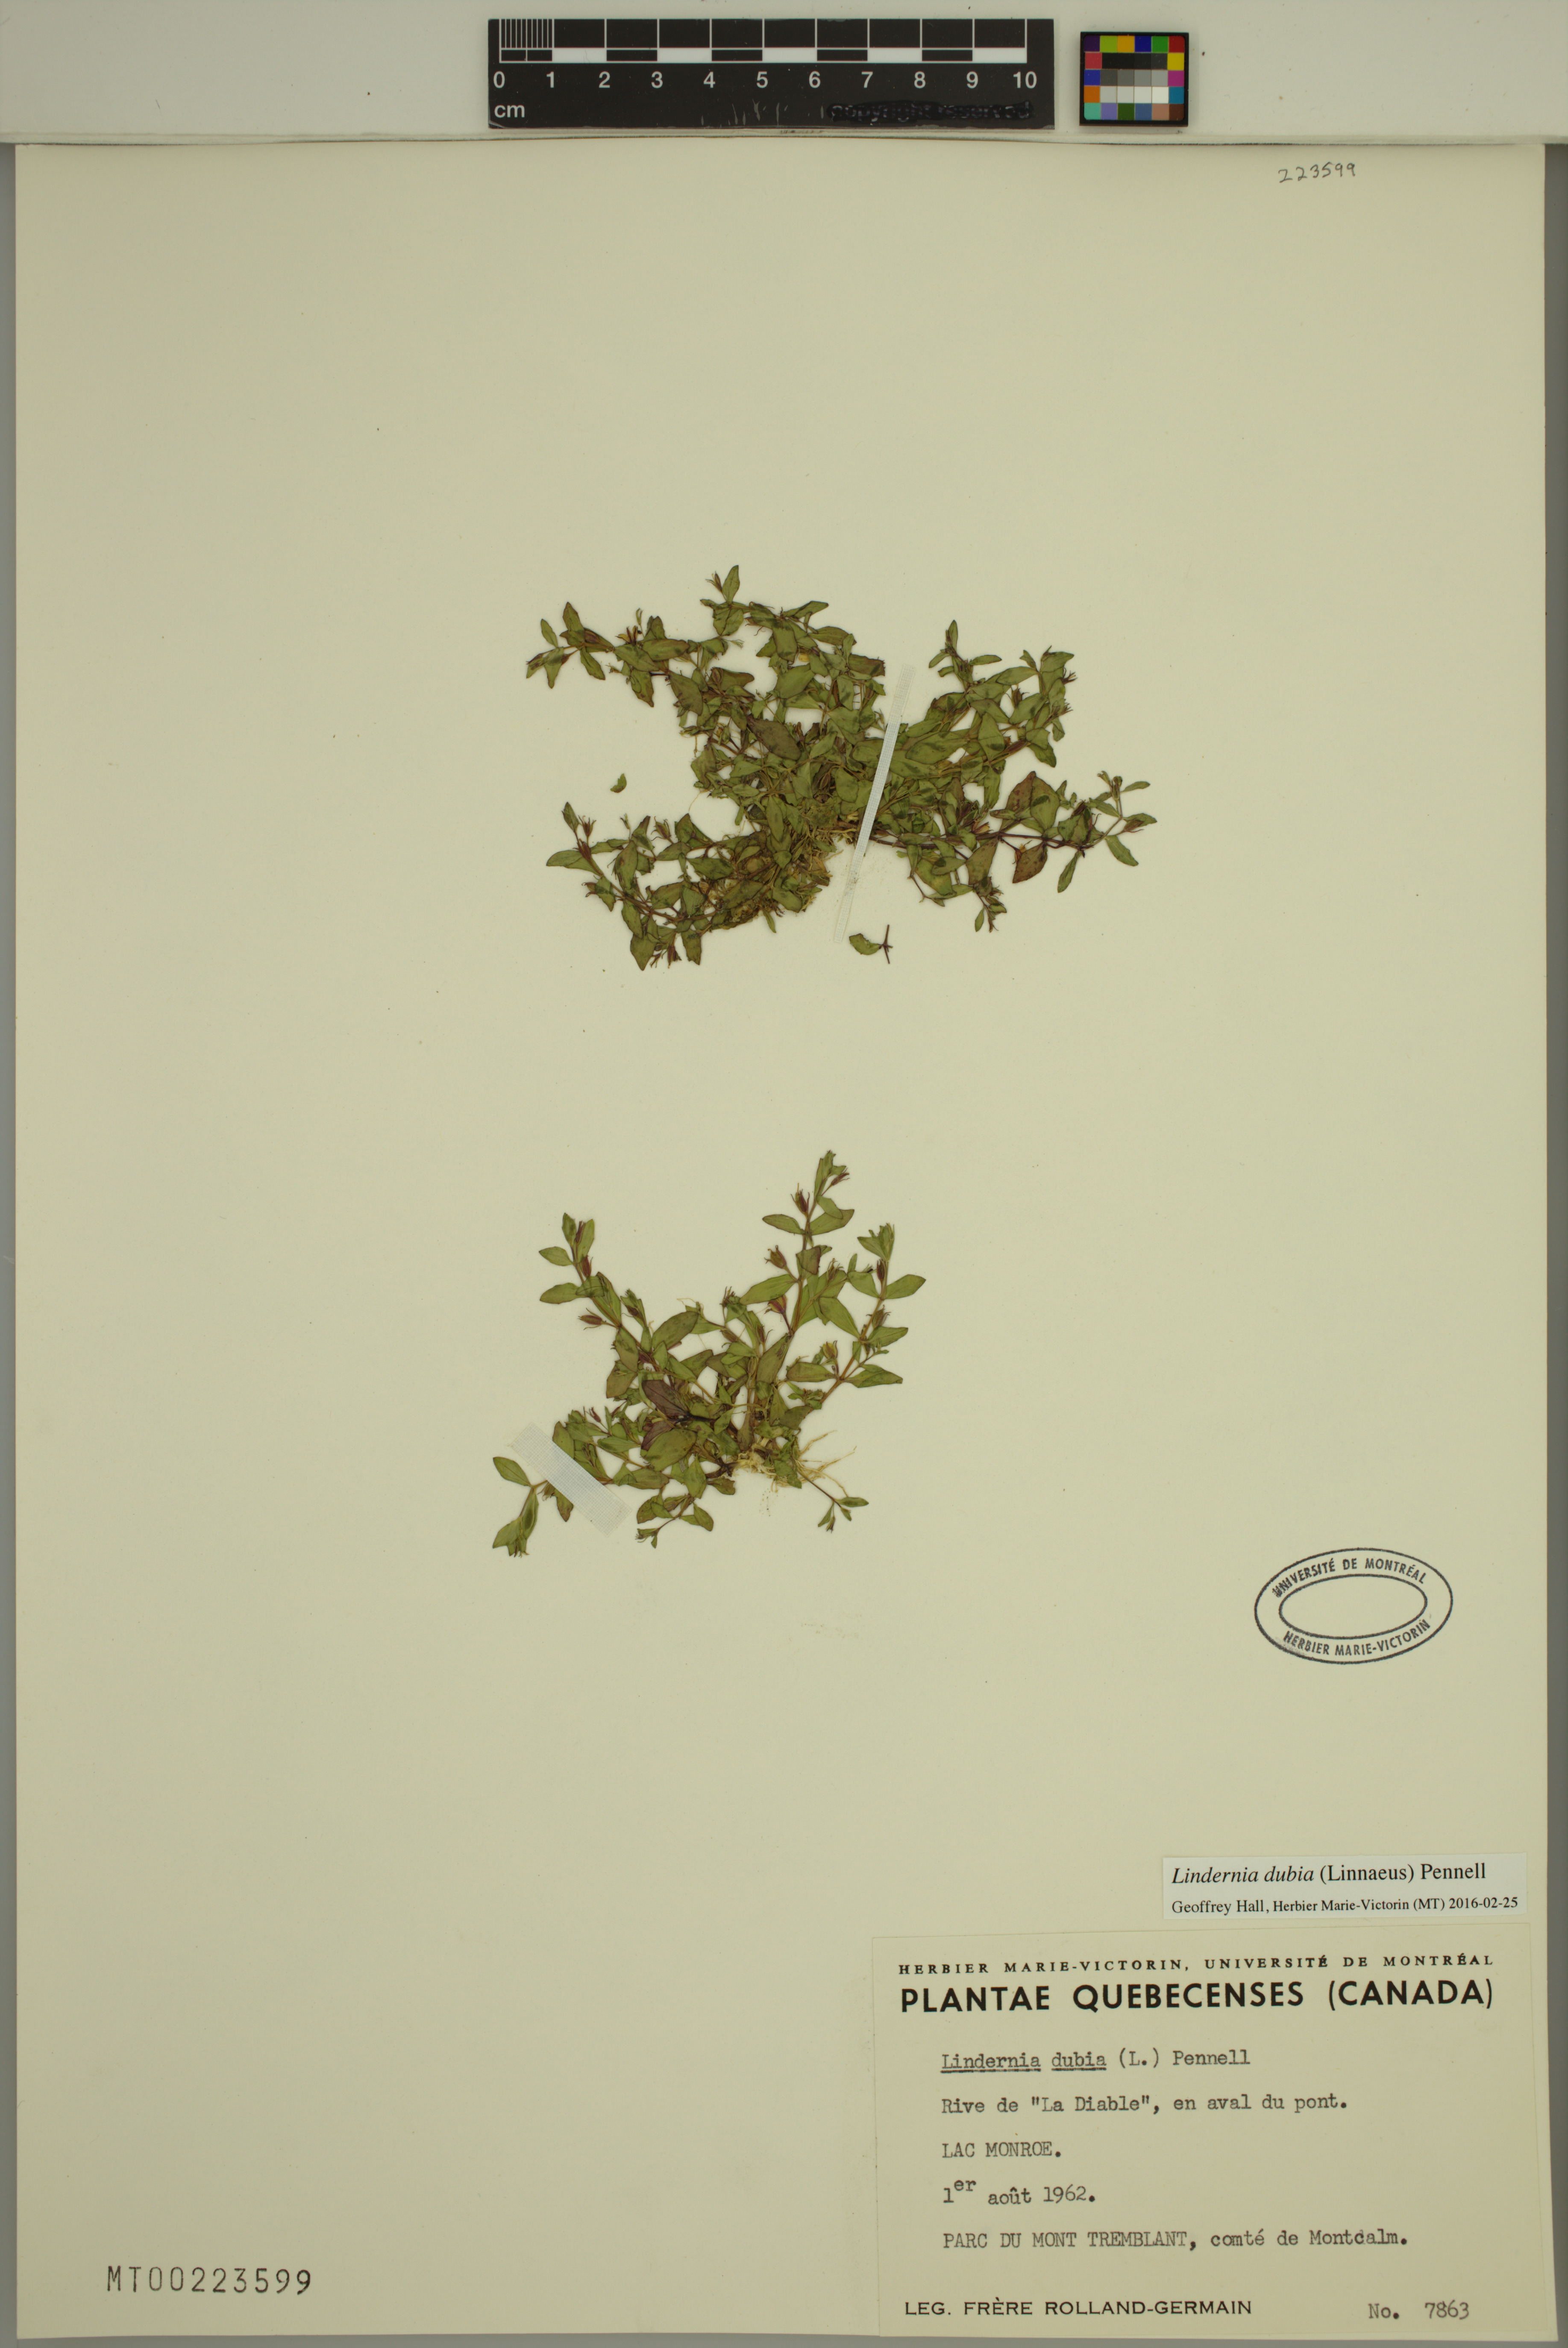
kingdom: Plantae
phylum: Tracheophyta
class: Magnoliopsida
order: Lamiales
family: Linderniaceae
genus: Lindernia
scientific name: Lindernia dubia
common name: Annual false pimpernel
